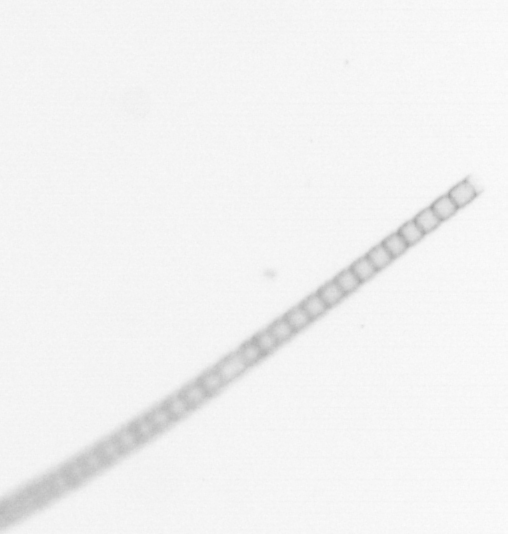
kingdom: Chromista
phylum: Ochrophyta
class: Bacillariophyceae
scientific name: Bacillariophyceae
